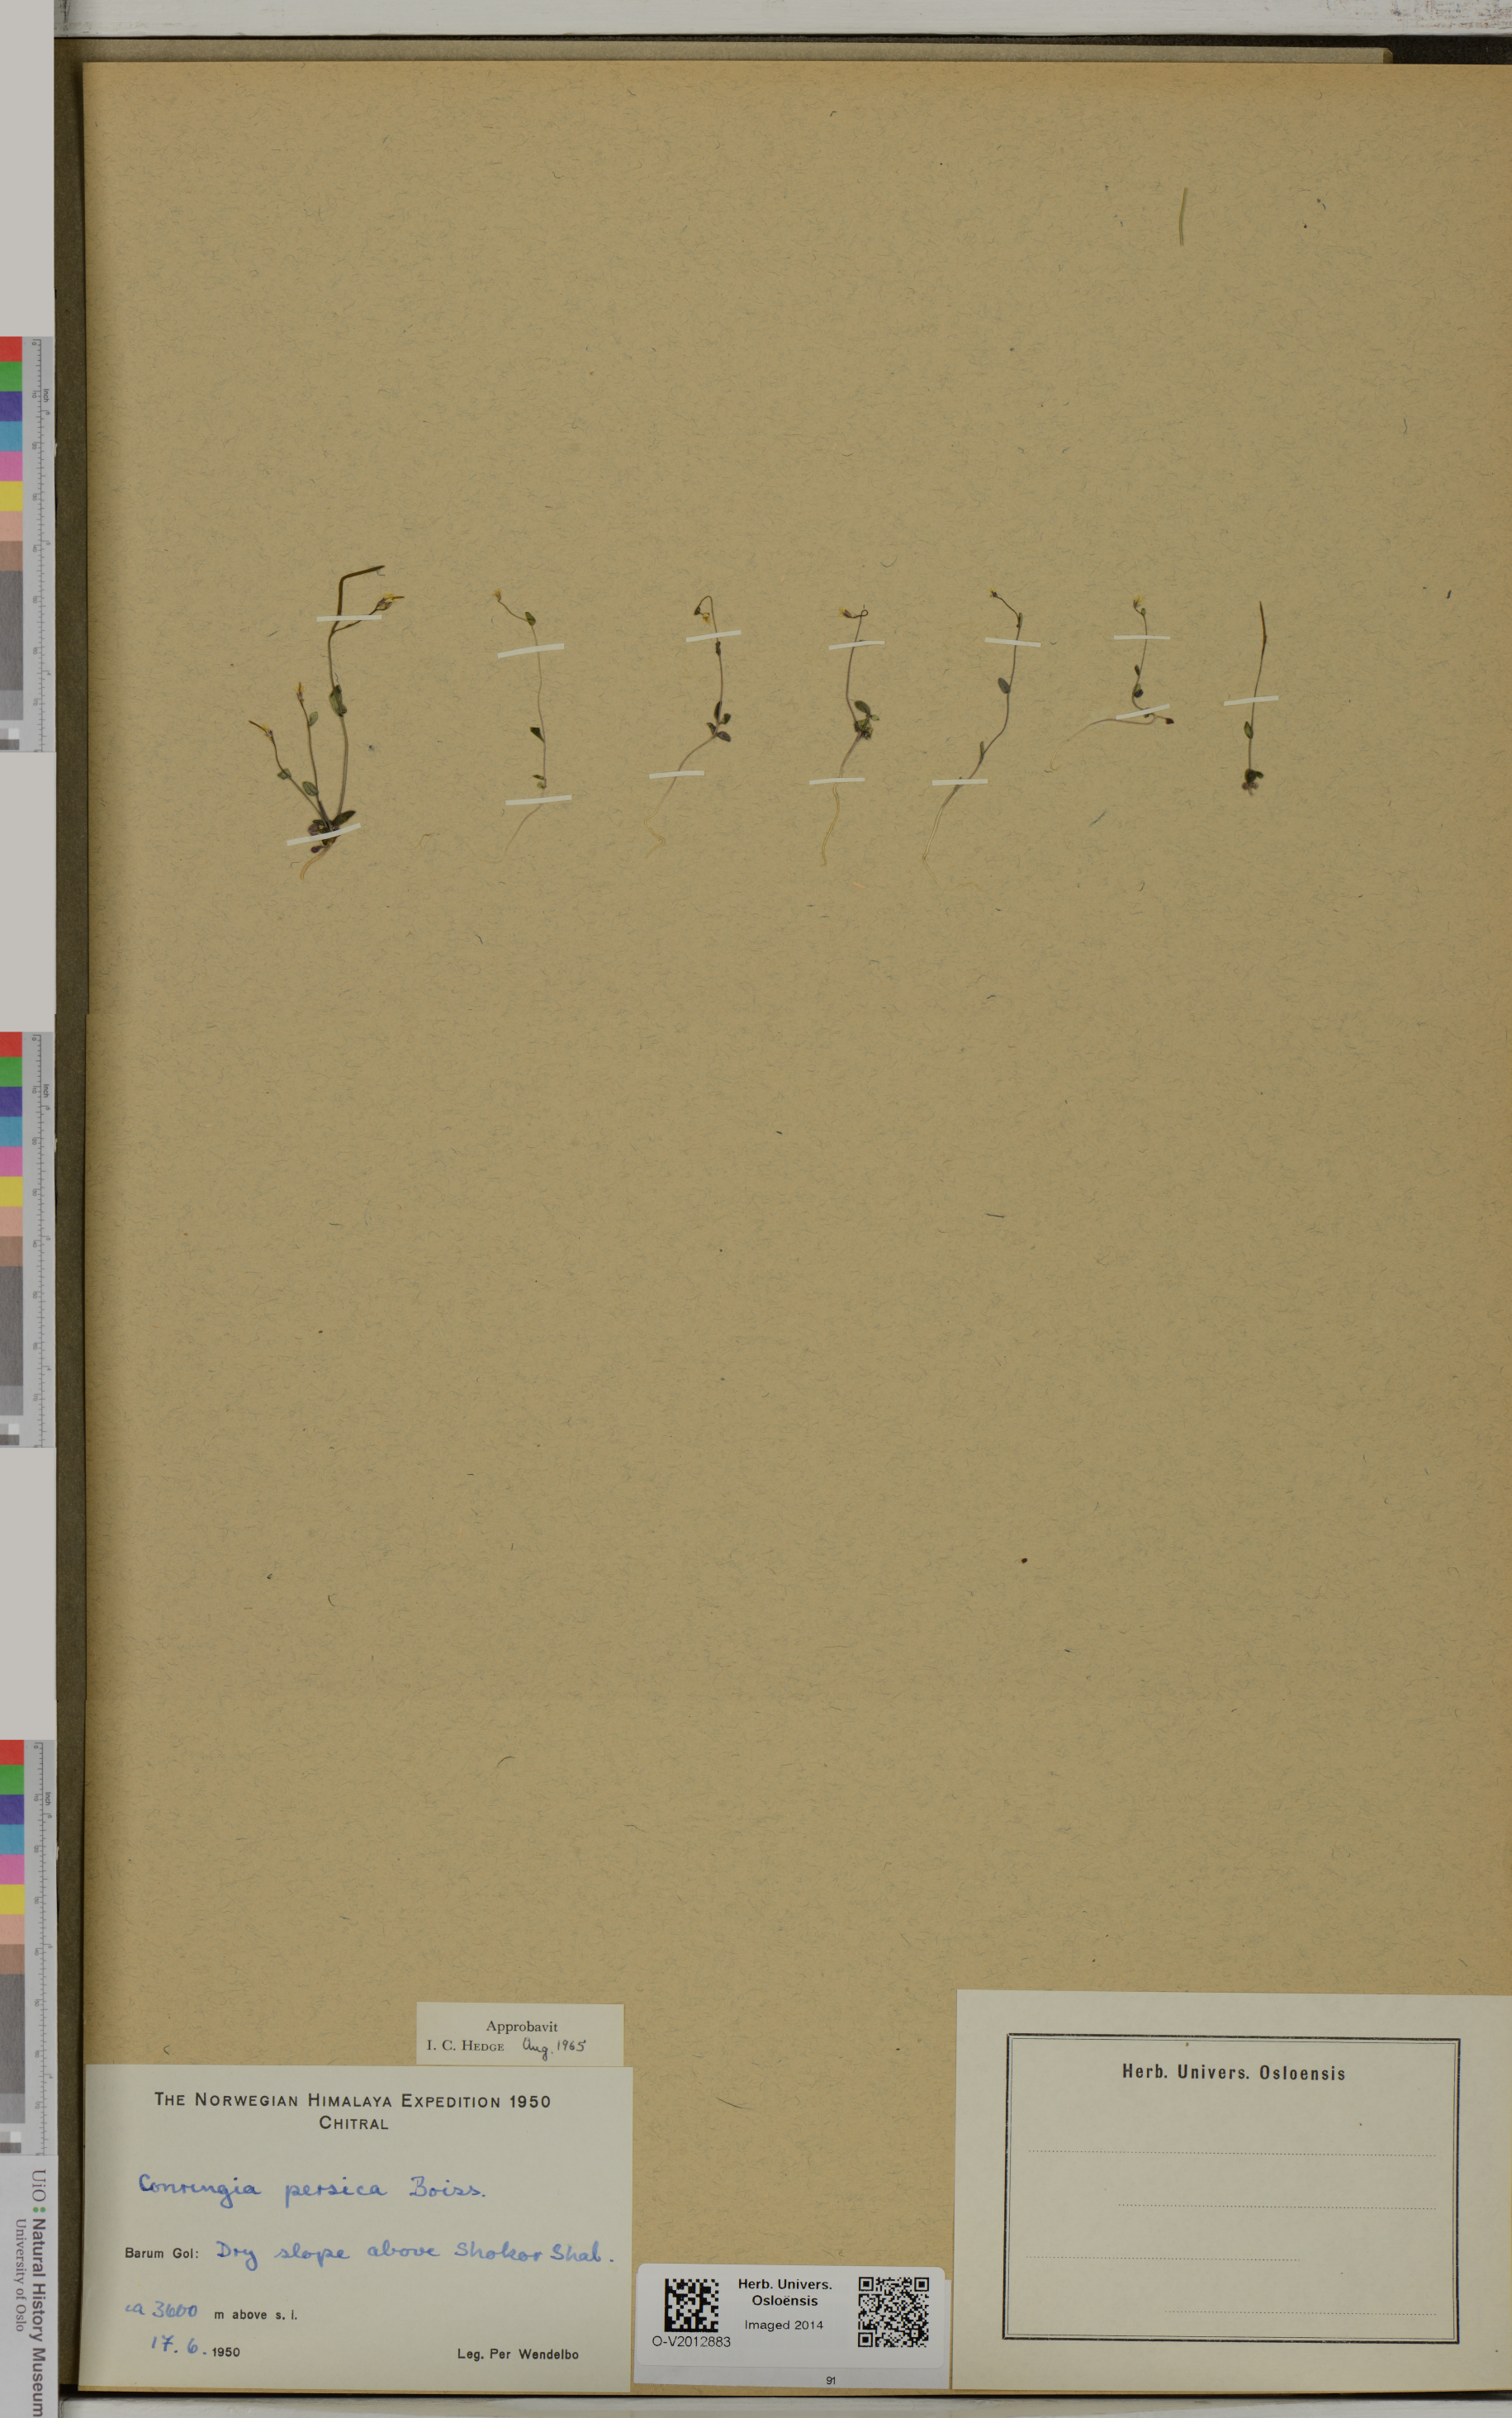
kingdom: Plantae
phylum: Tracheophyta
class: Magnoliopsida
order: Brassicales
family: Brassicaceae
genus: Conringia
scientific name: Conringia persica
